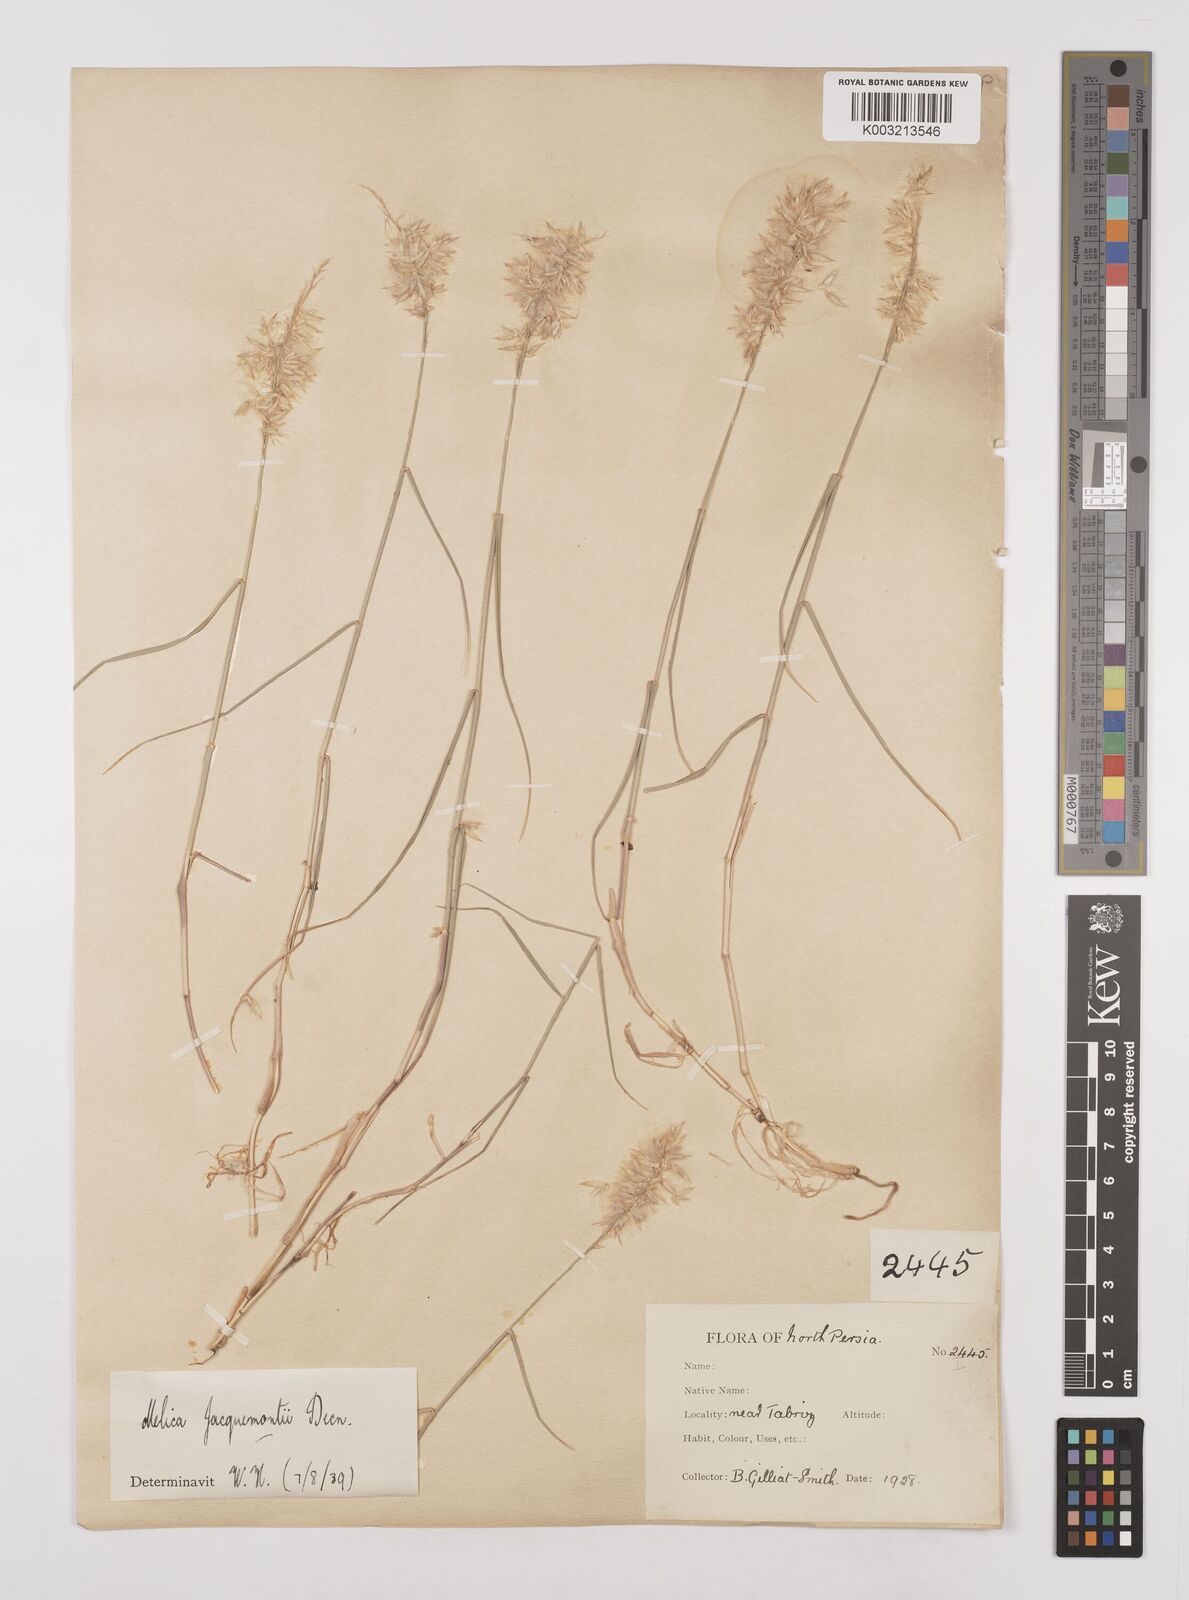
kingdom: Plantae
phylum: Tracheophyta
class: Liliopsida
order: Poales
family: Poaceae
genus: Melica
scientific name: Melica persica
